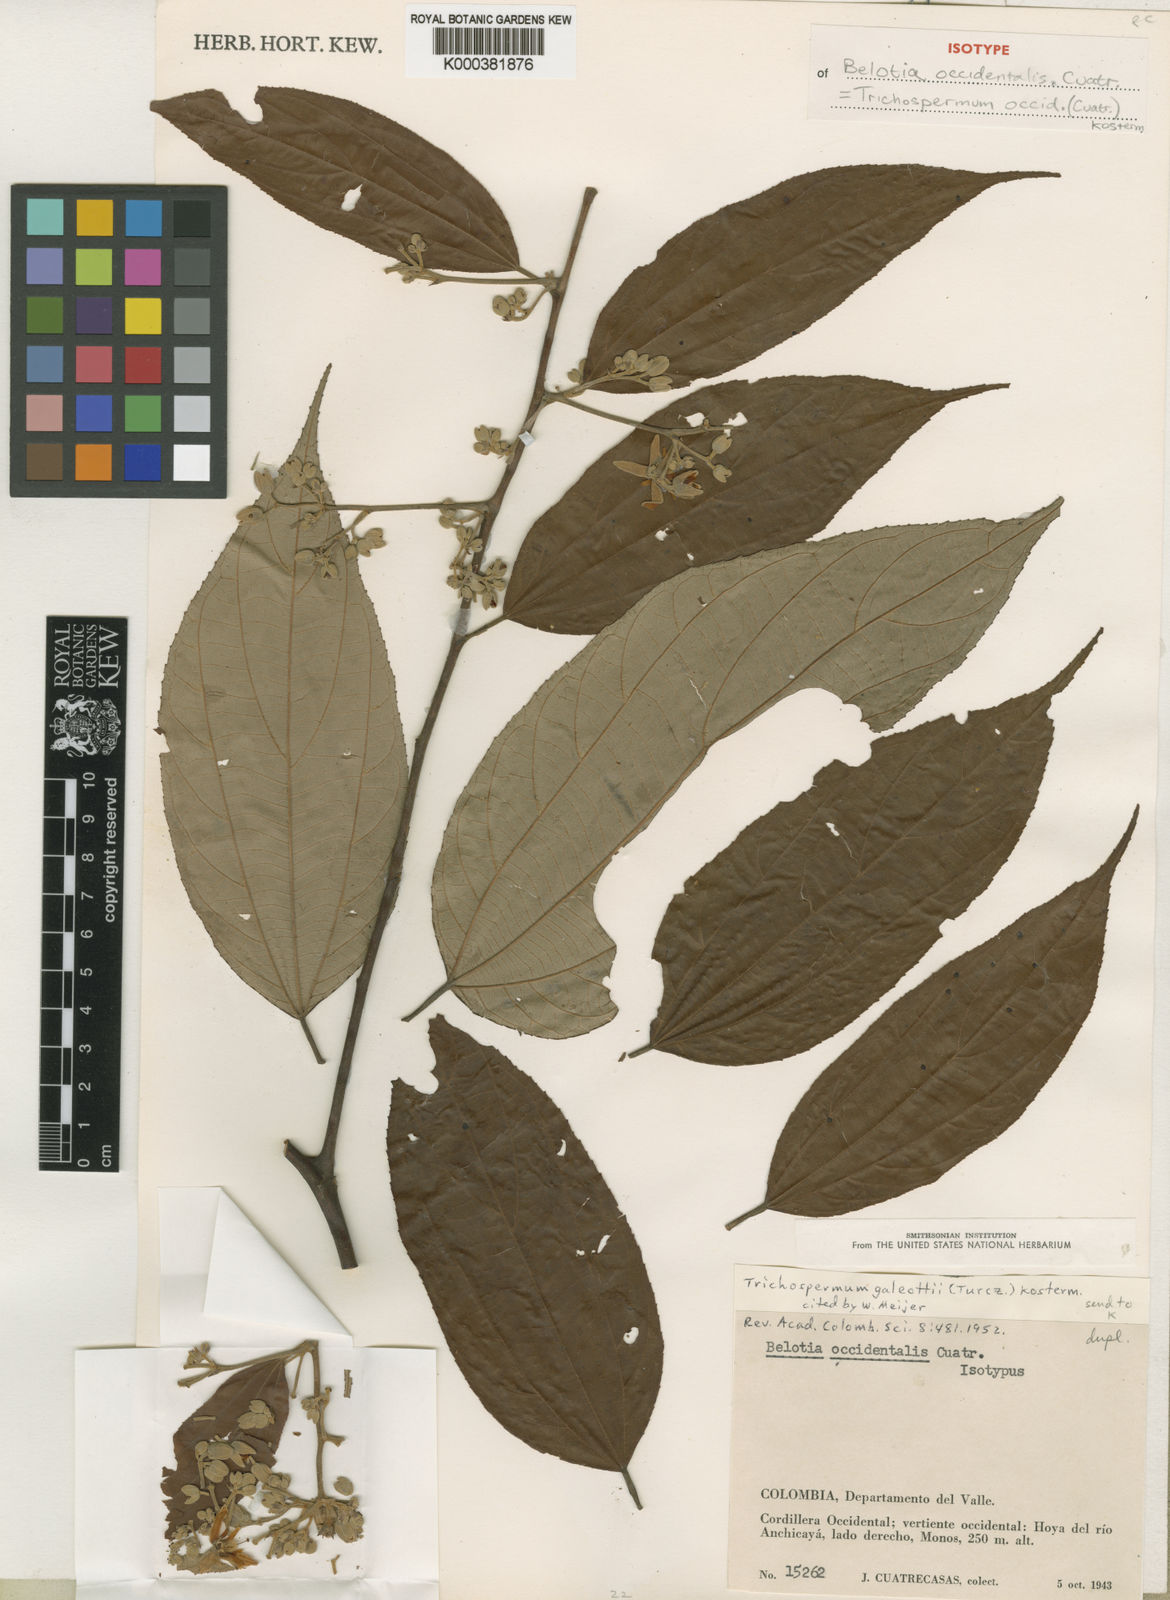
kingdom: Plantae
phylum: Tracheophyta
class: Magnoliopsida
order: Malvales
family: Malvaceae
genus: Trichospermum
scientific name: Trichospermum mexicanum
